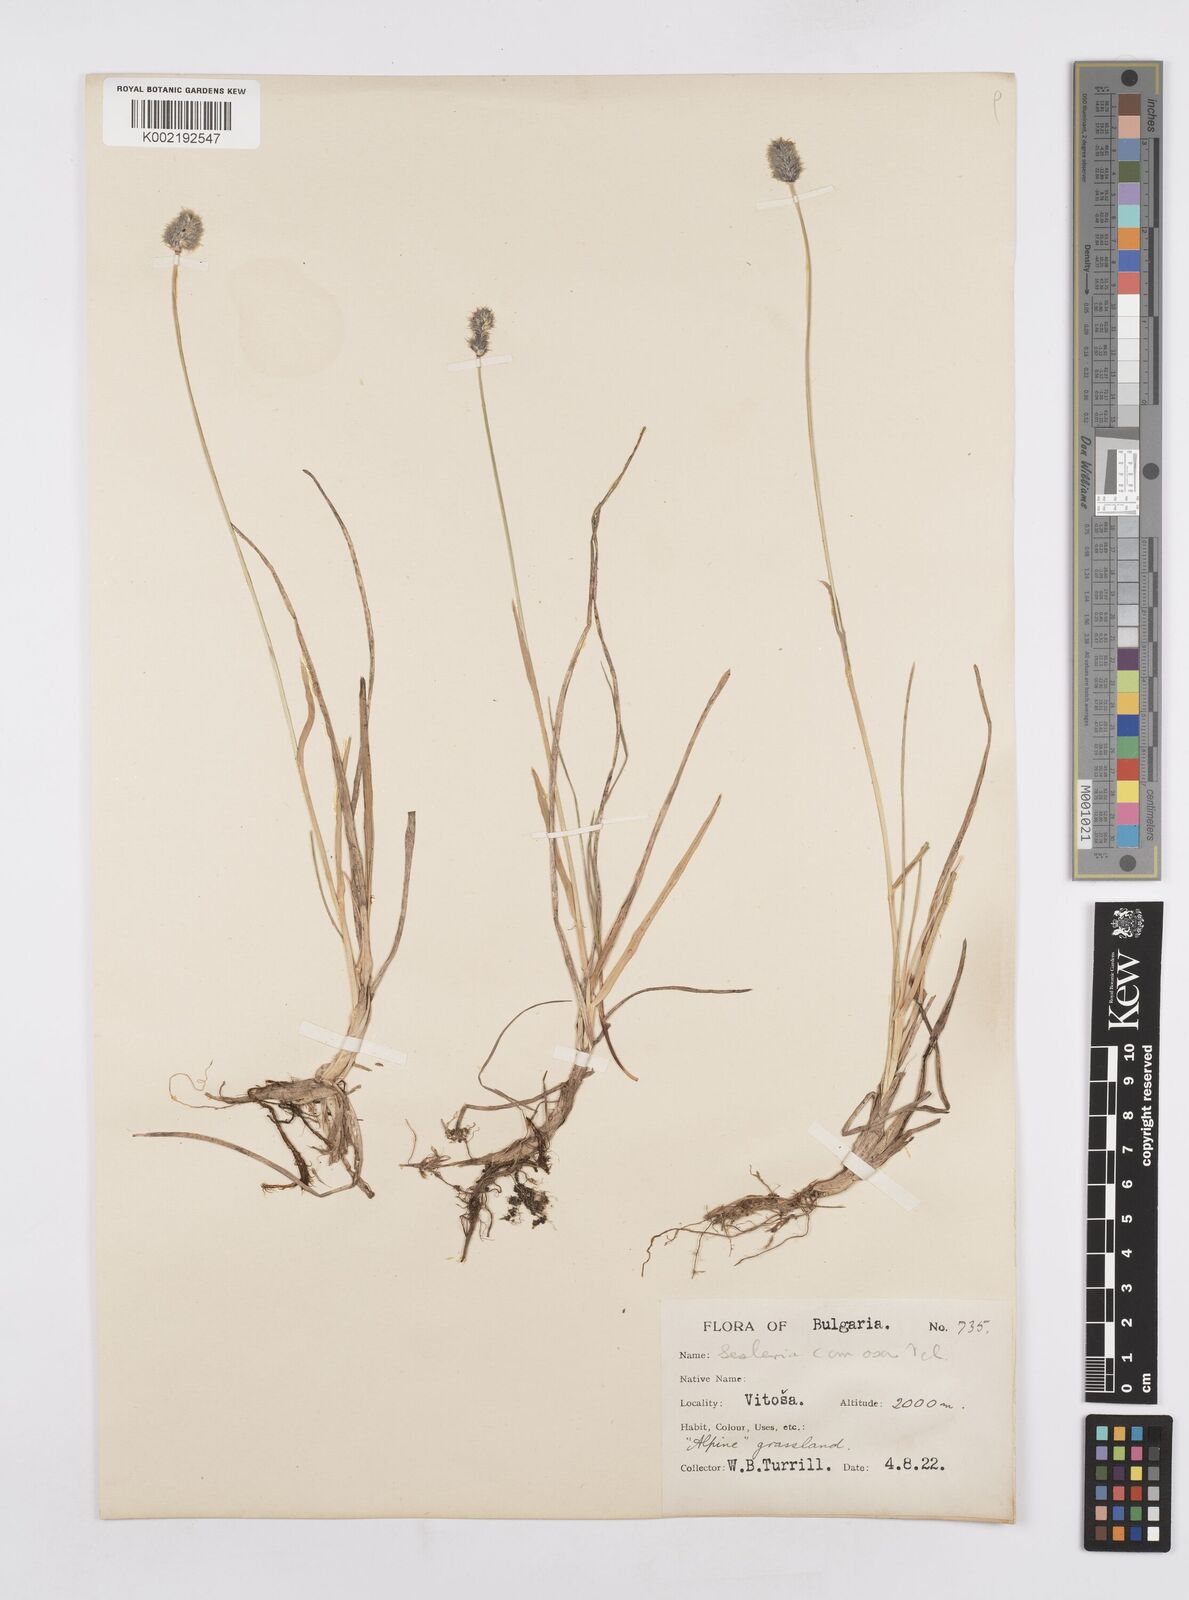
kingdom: Plantae
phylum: Tracheophyta
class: Liliopsida
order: Poales
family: Poaceae
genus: Sesleria
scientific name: Sesleria comosa
